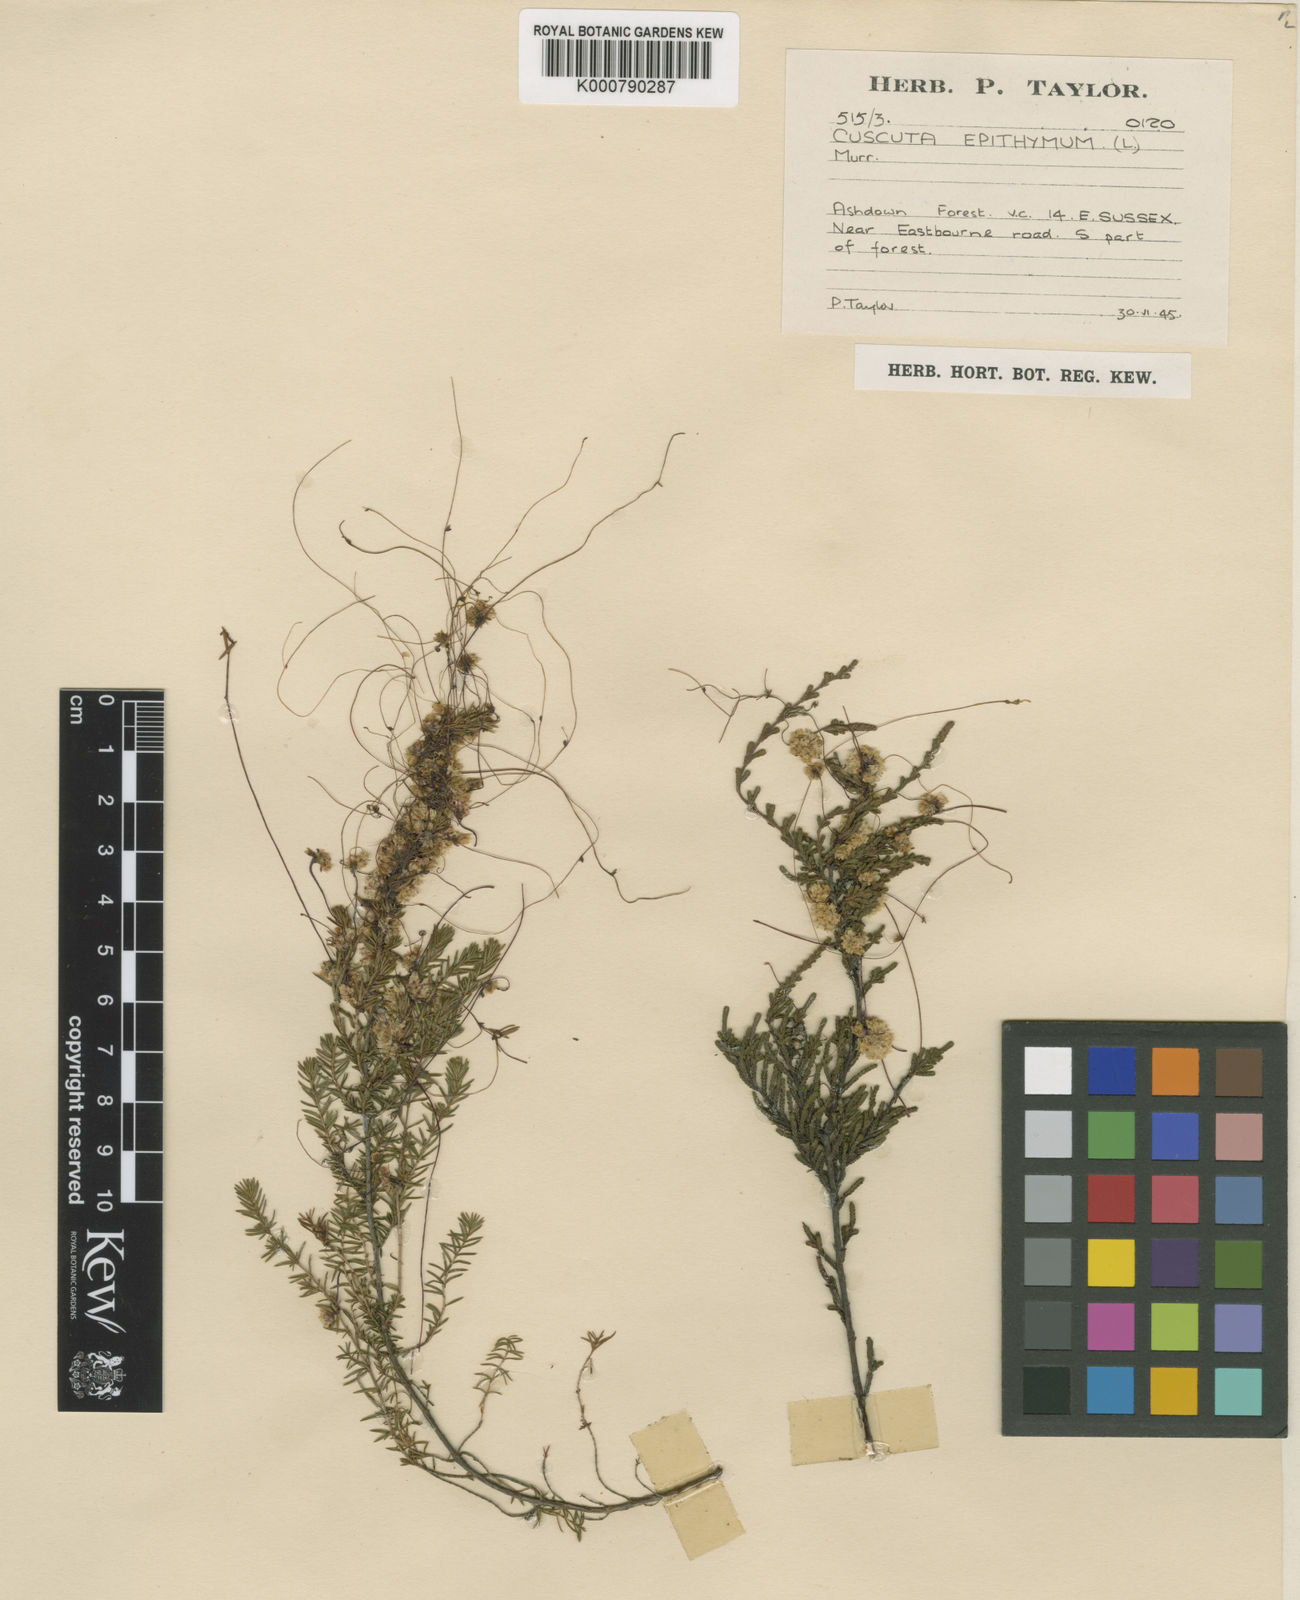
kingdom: Plantae
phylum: Tracheophyta
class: Magnoliopsida
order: Solanales
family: Convolvulaceae
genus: Cuscuta
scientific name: Cuscuta epithymum
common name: Clover dodder
